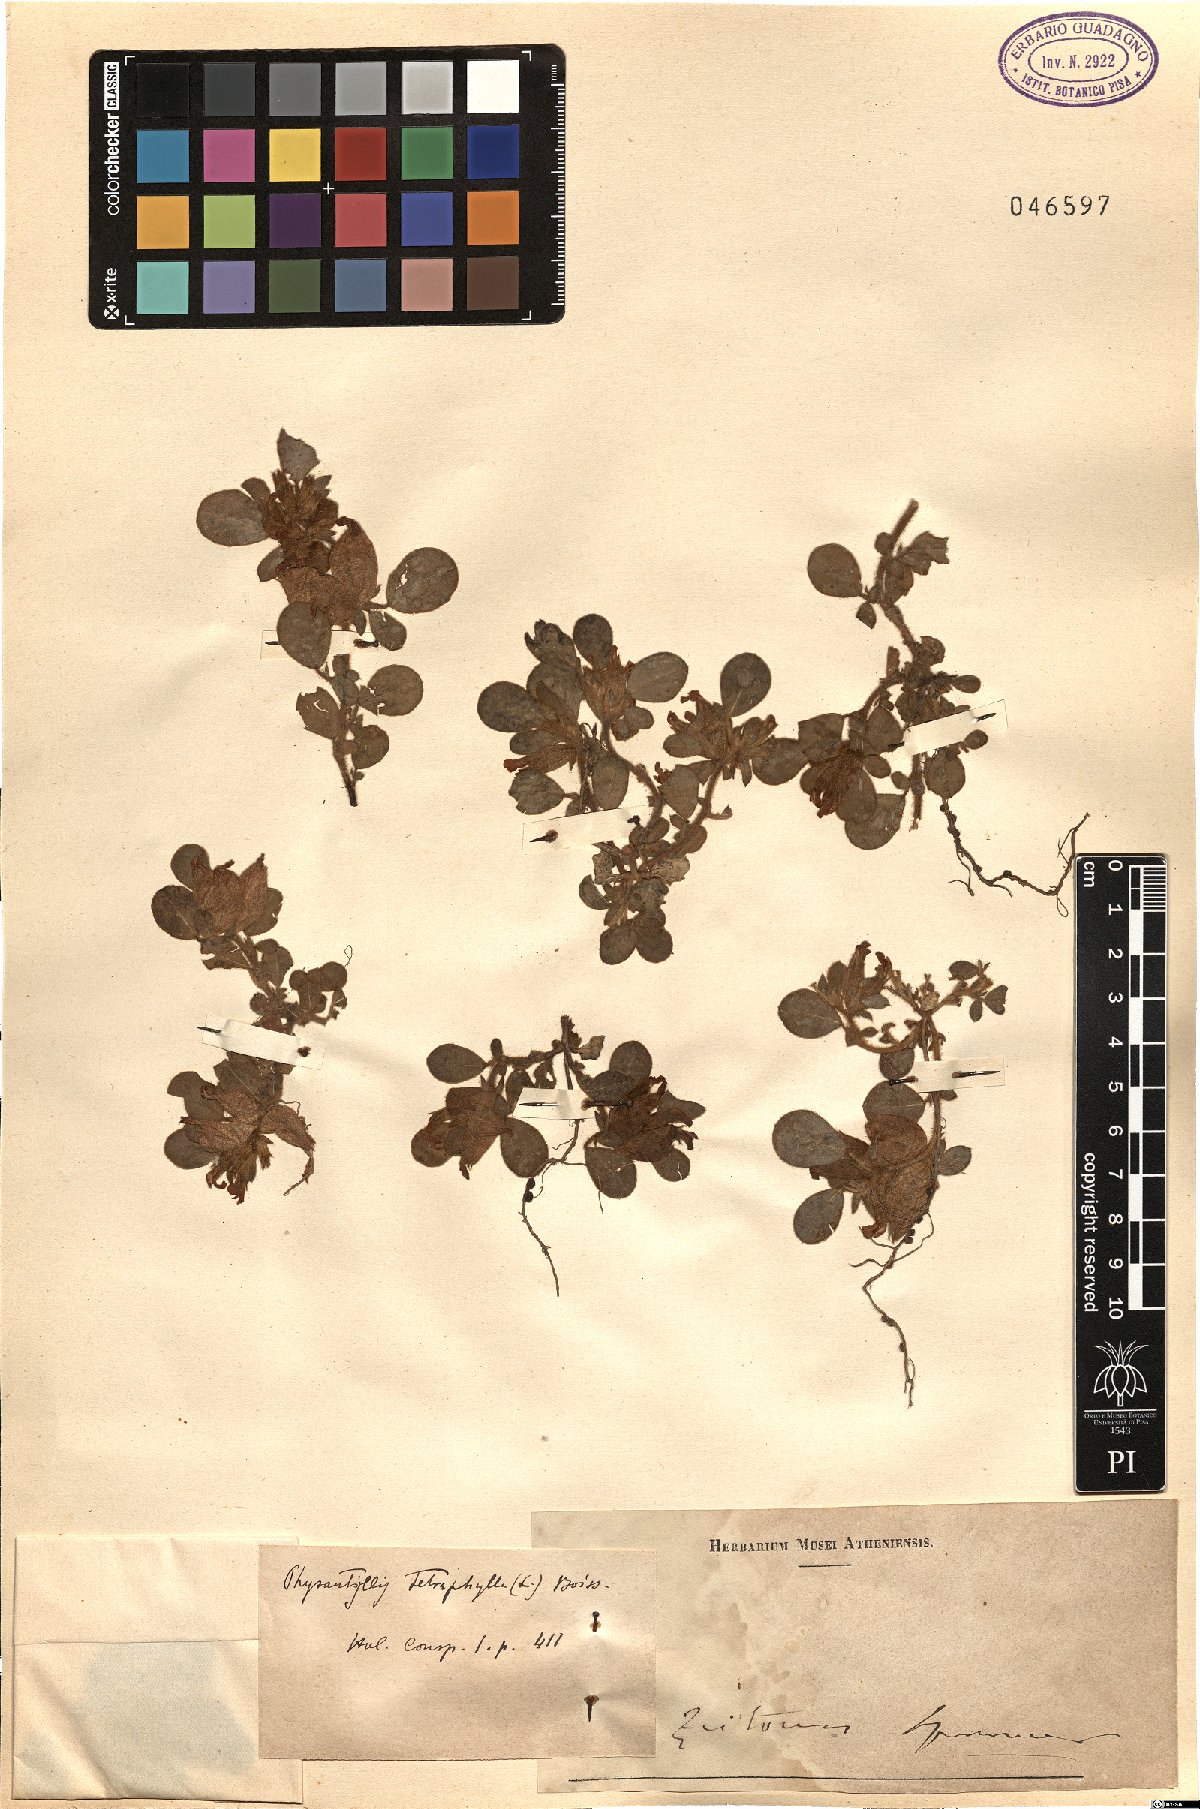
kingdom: Plantae
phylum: Tracheophyta
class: Magnoliopsida
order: Fabales
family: Fabaceae
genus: Tripodion
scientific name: Tripodion tetraphyllum
